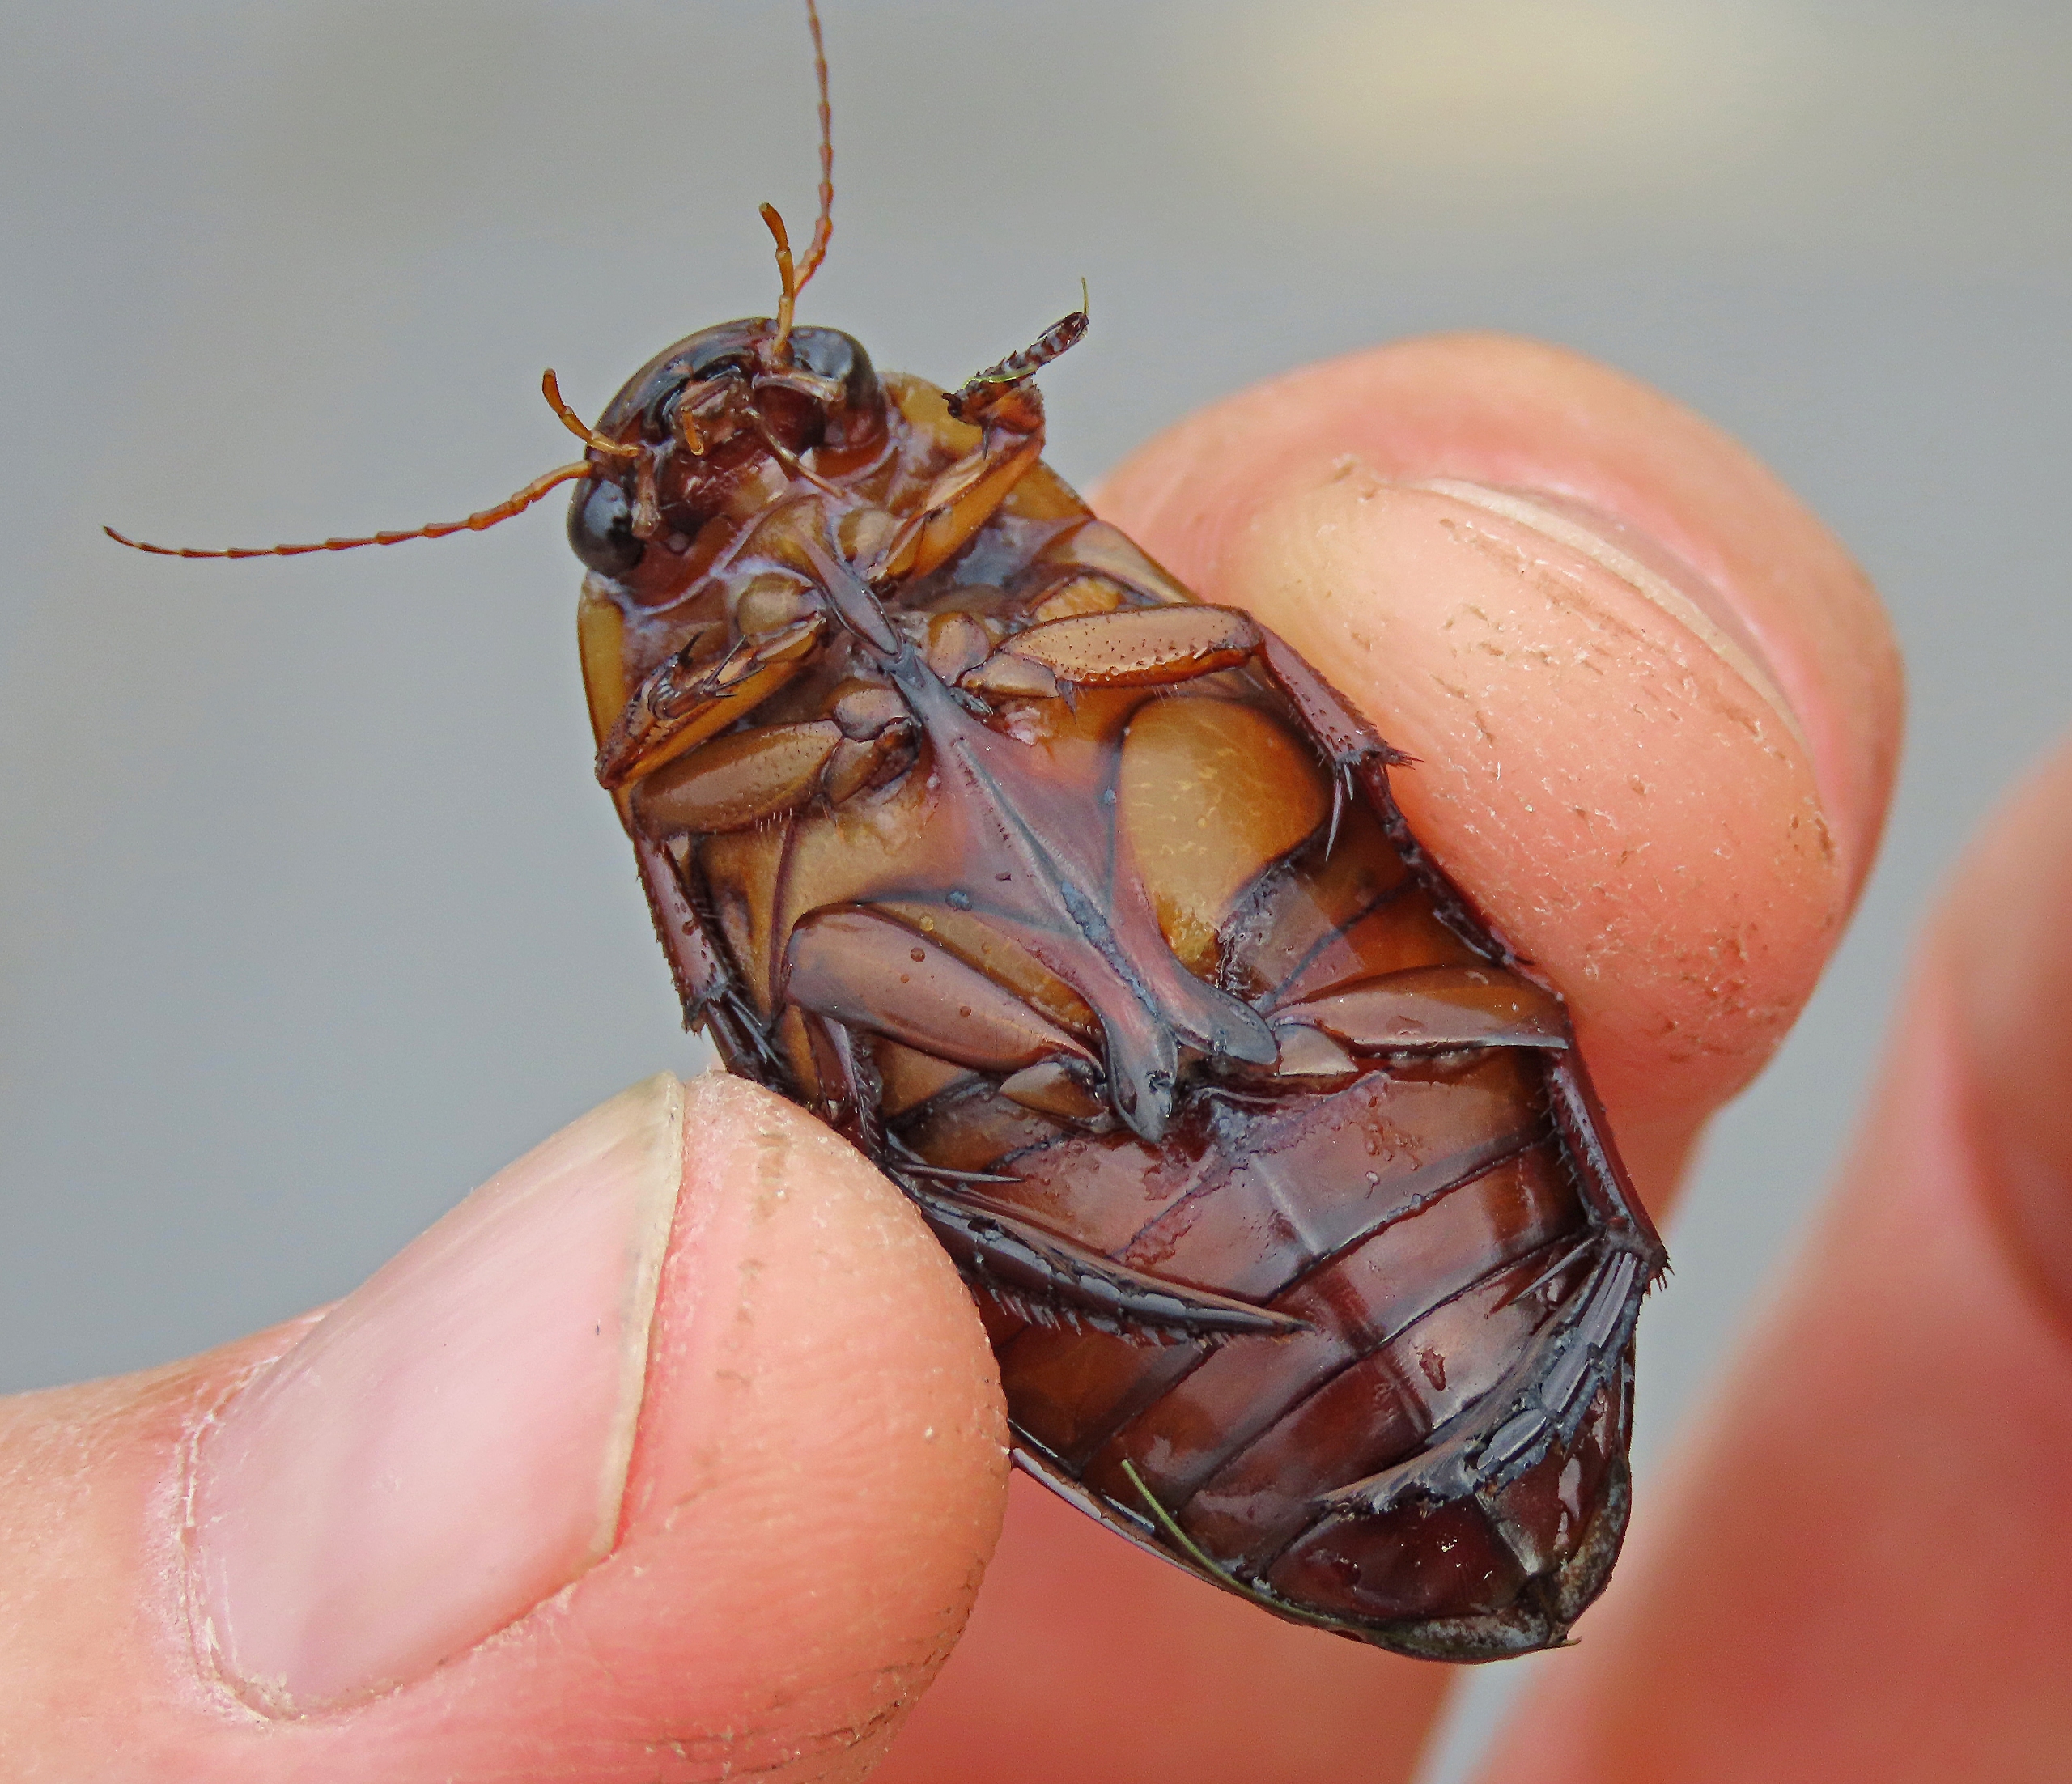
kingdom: Animalia
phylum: Arthropoda
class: Insecta
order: Coleoptera
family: Dytiscidae
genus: Dytiscus
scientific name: Dytiscus dimidiatus
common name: Rundhoftet vandkalv
